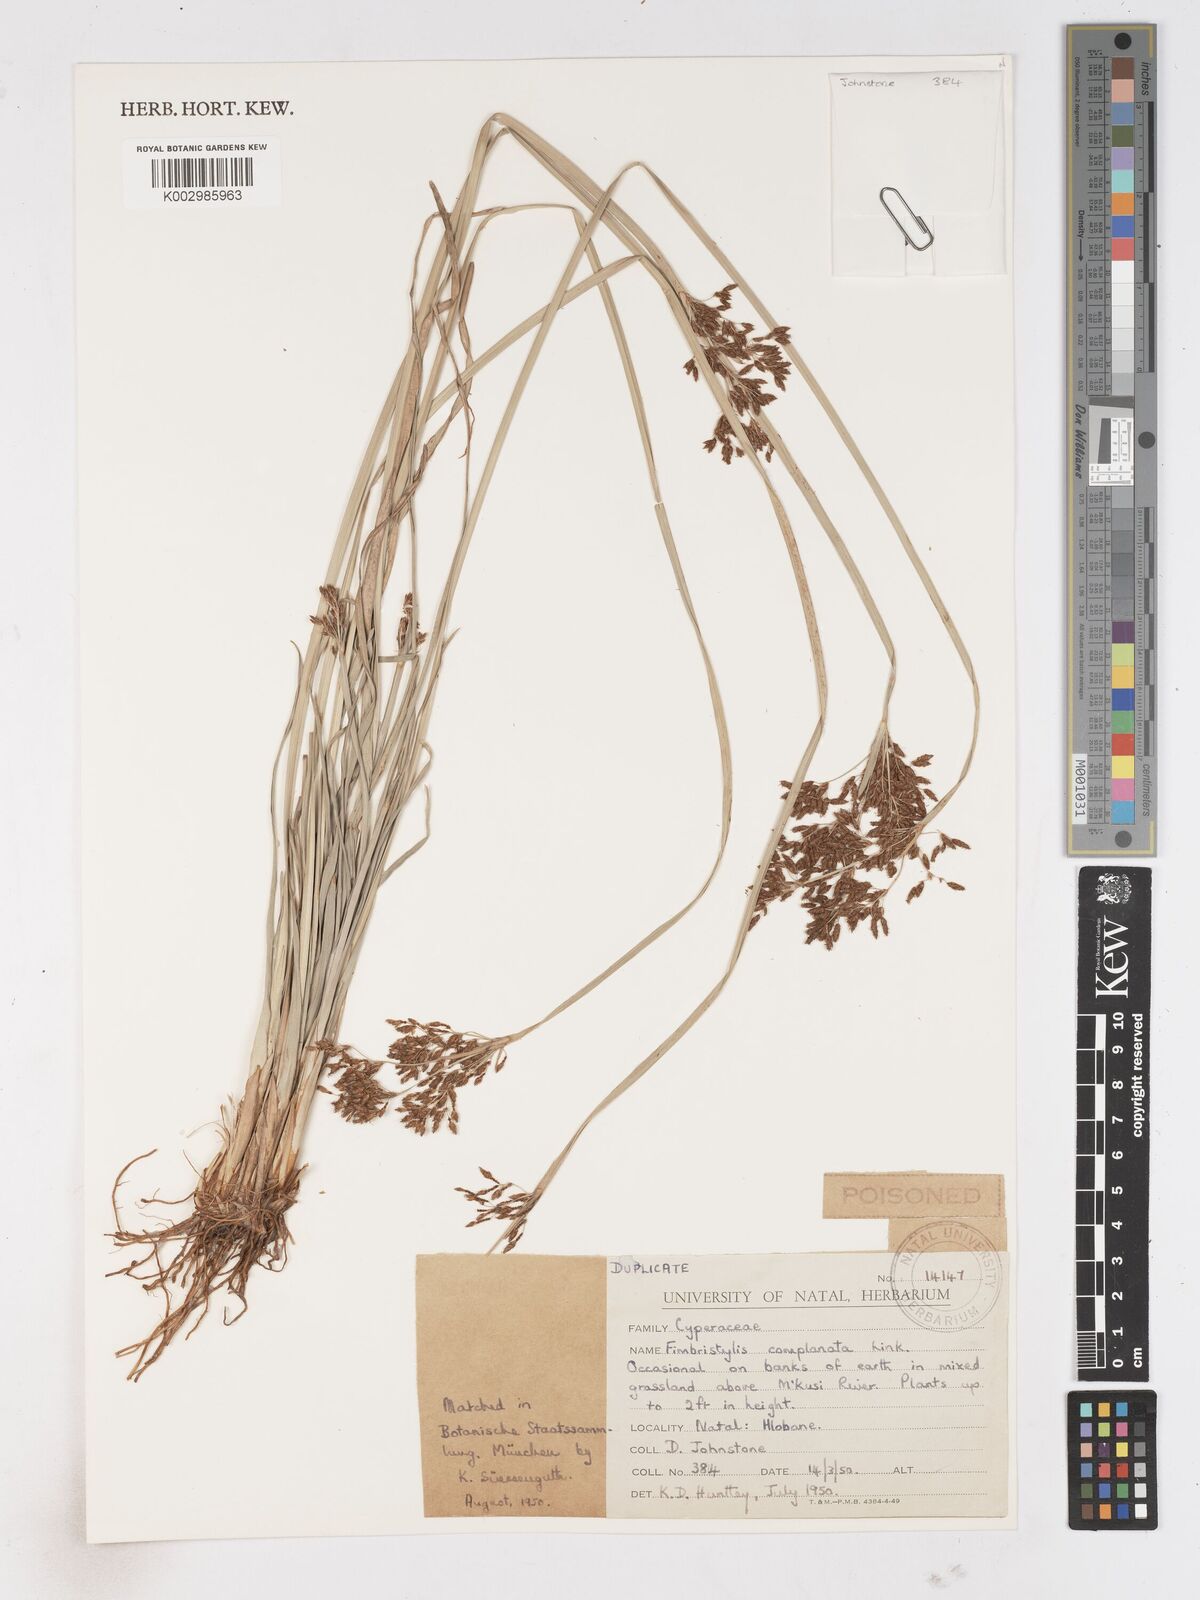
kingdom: Plantae
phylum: Tracheophyta
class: Liliopsida
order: Poales
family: Cyperaceae
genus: Fimbristylis
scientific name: Fimbristylis complanata
